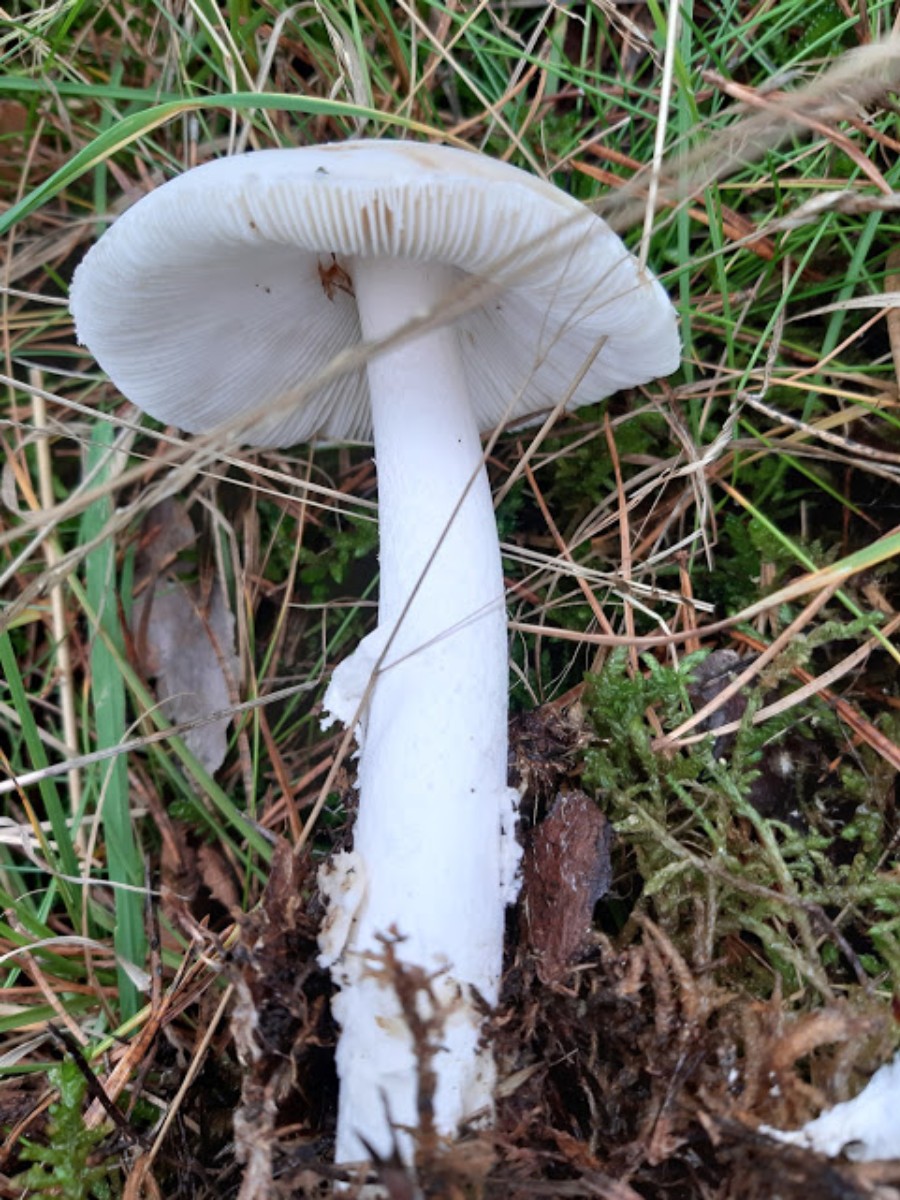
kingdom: Fungi
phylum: Basidiomycota
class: Agaricomycetes
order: Agaricales
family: Amanitaceae
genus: Amanita
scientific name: Amanita virosa
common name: snehvid fluesvamp
